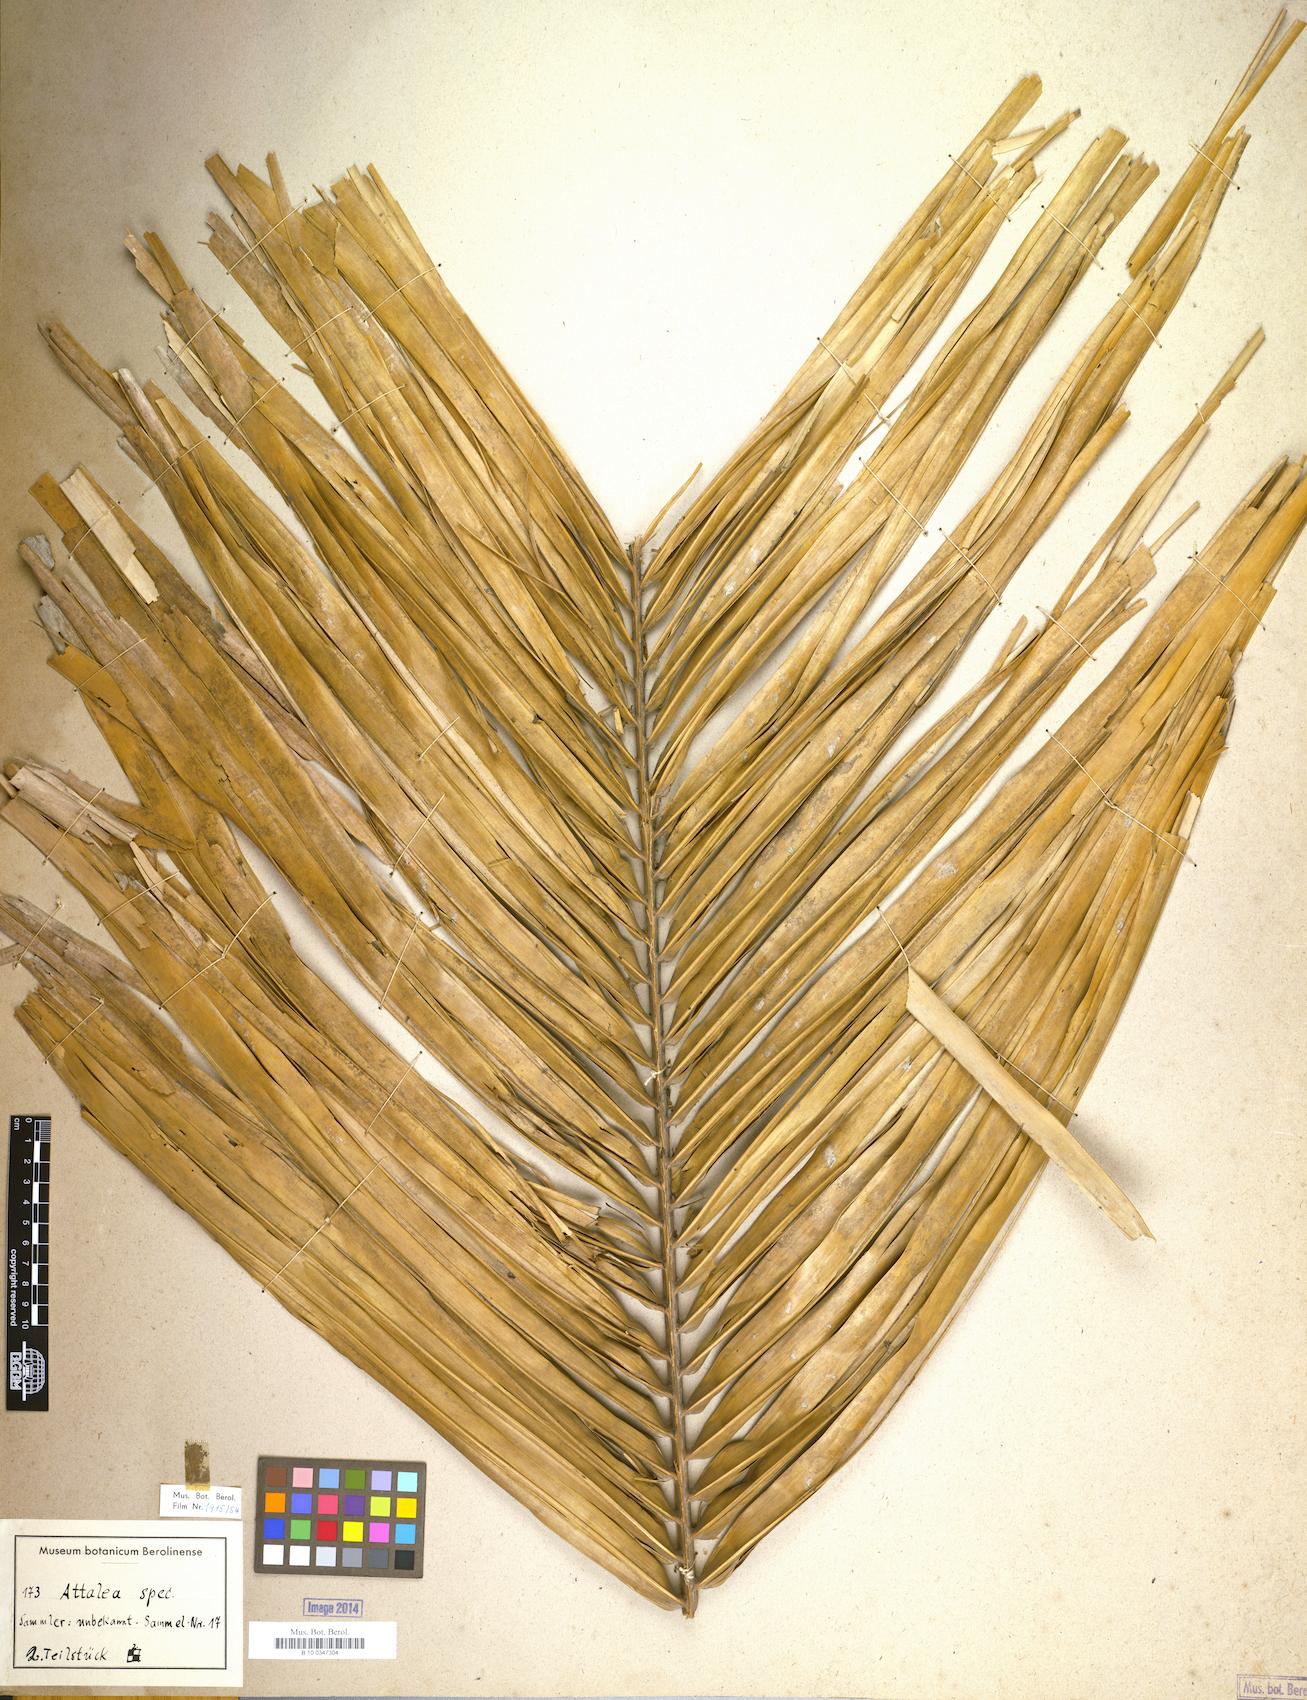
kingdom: Plantae
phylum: Tracheophyta
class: Liliopsida
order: Arecales
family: Arecaceae
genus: Attalea
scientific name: Attalea
